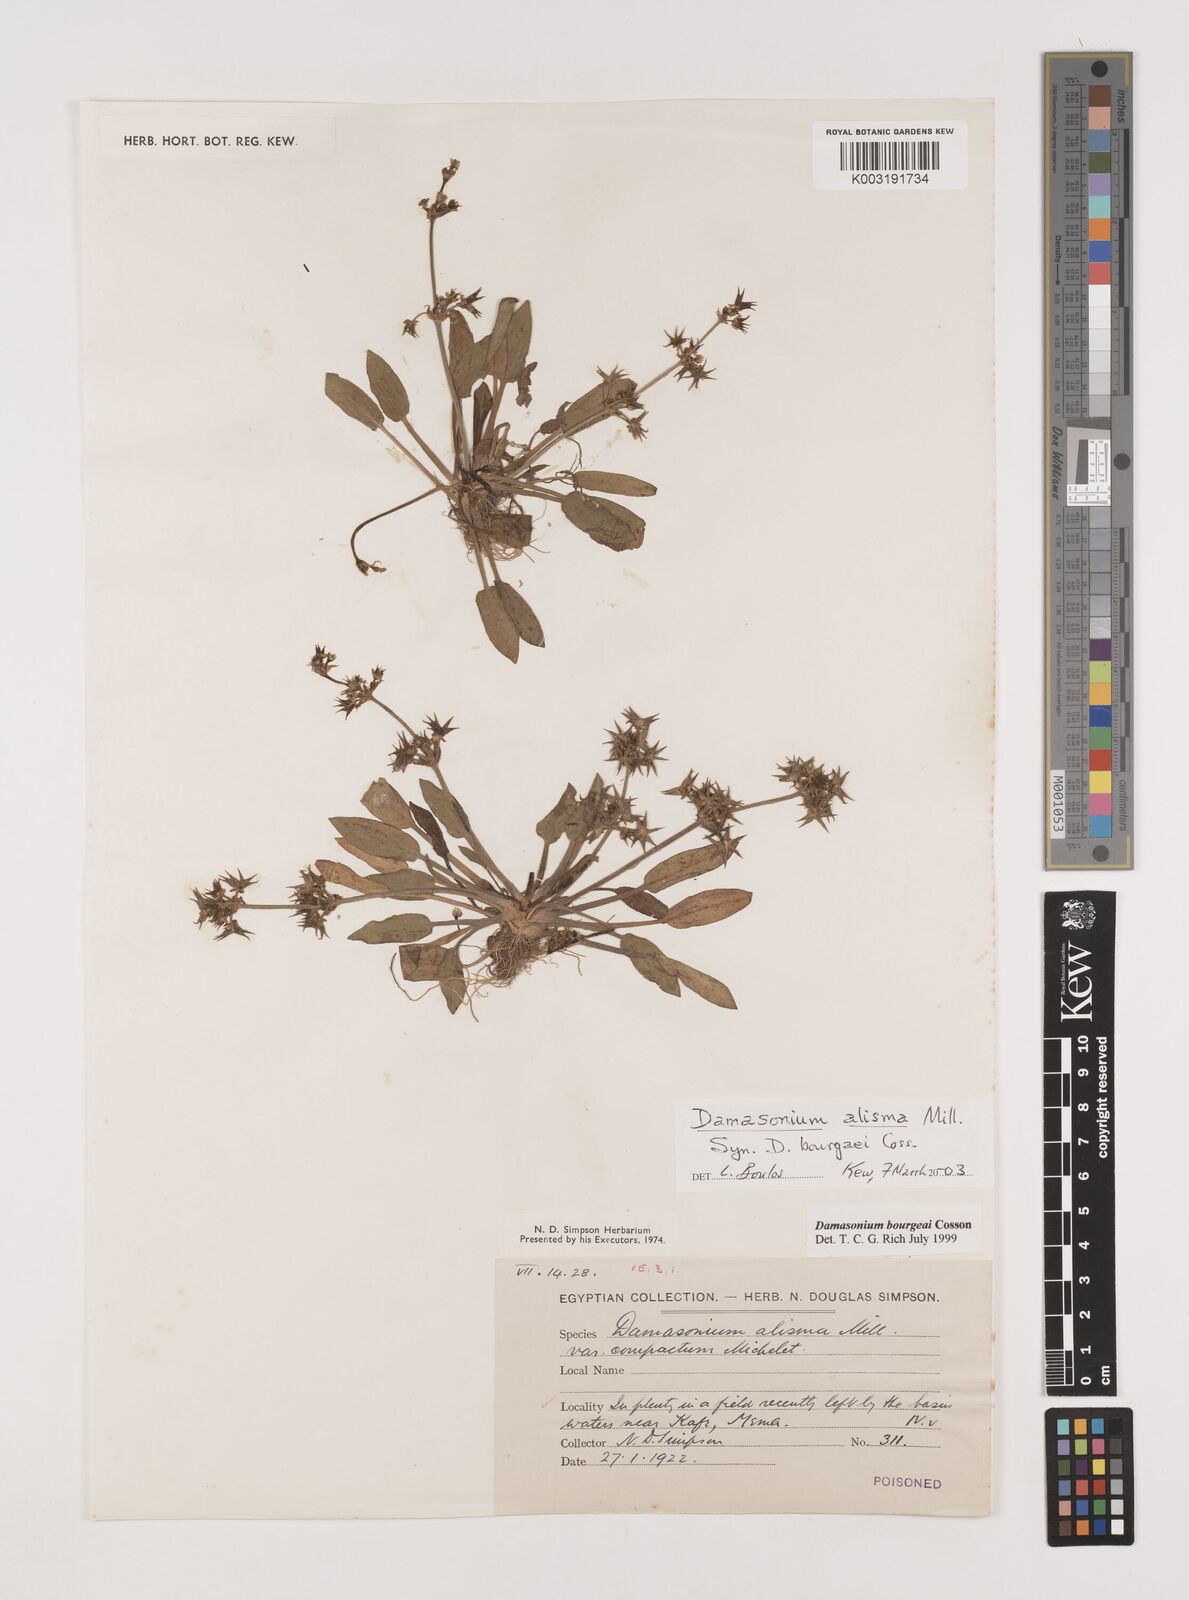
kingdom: Plantae
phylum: Tracheophyta
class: Liliopsida
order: Alismatales
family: Alismataceae
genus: Damasonium
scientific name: Damasonium bourgaei
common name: Starfruit
